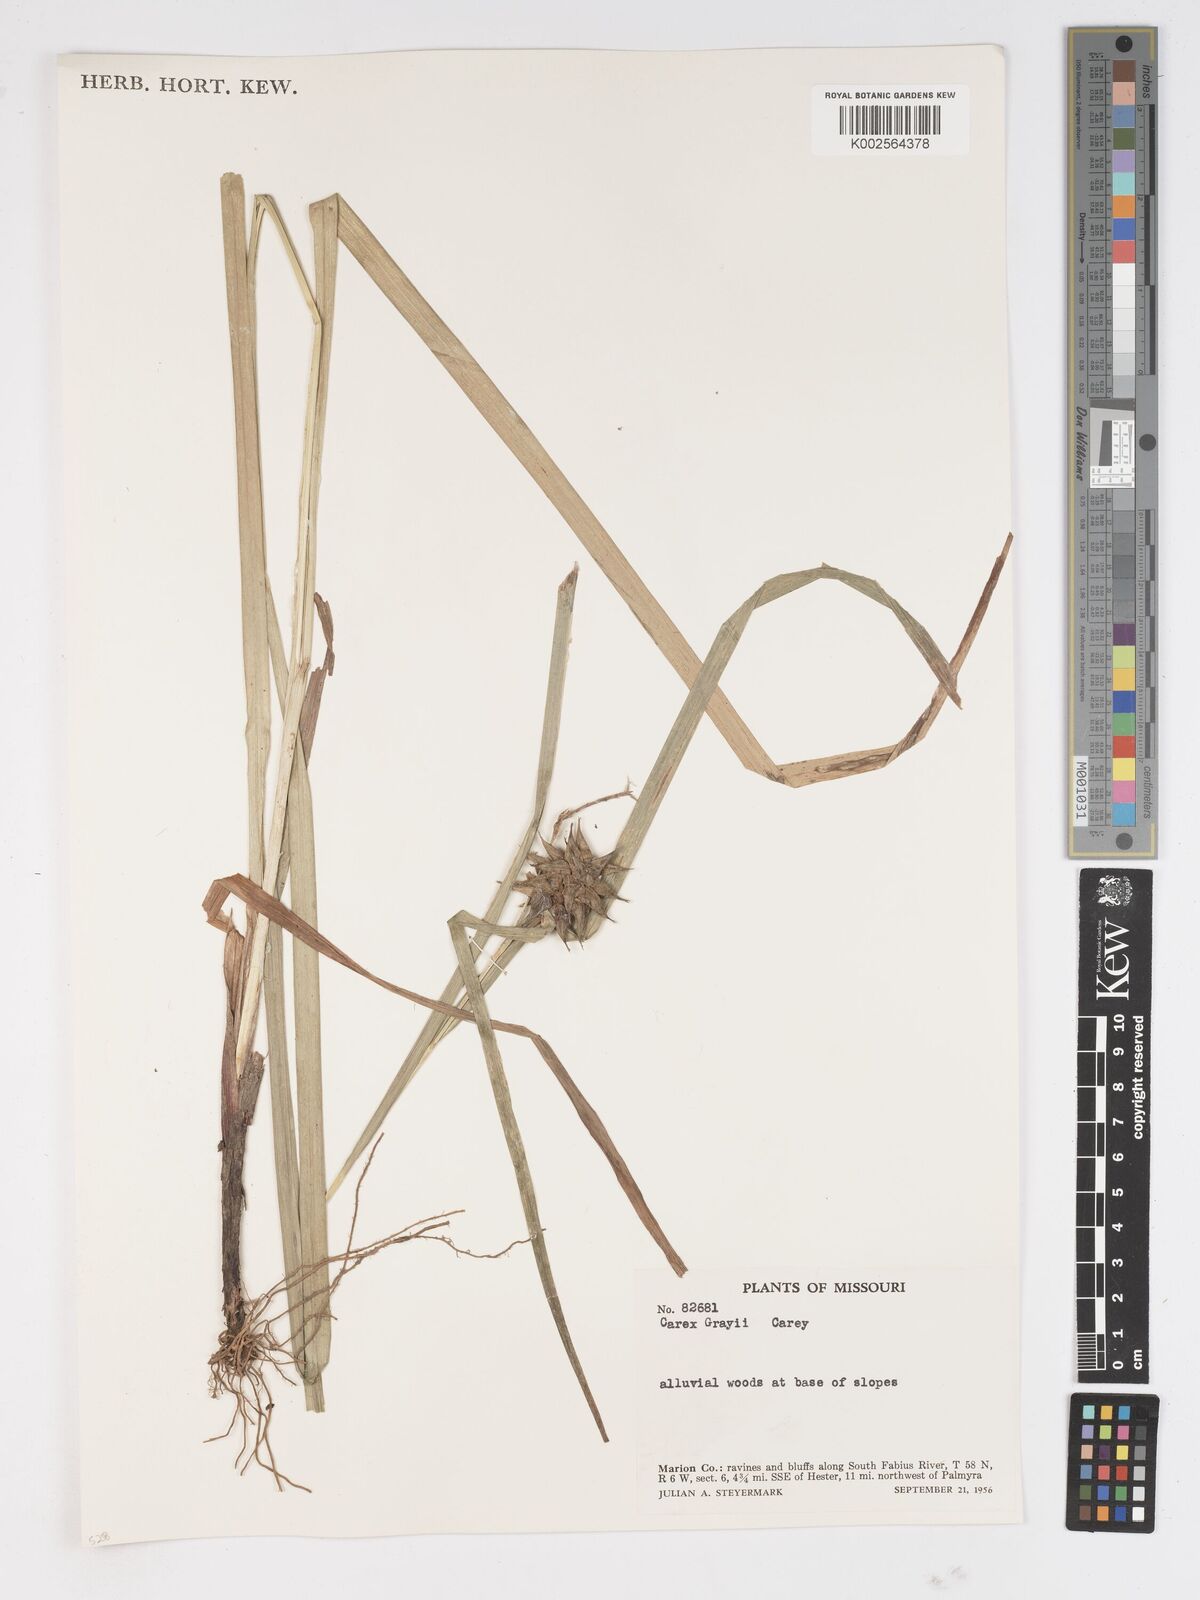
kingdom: Plantae
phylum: Tracheophyta
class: Liliopsida
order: Poales
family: Cyperaceae
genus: Carex
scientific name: Carex grayi
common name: Asa gray's sedge
